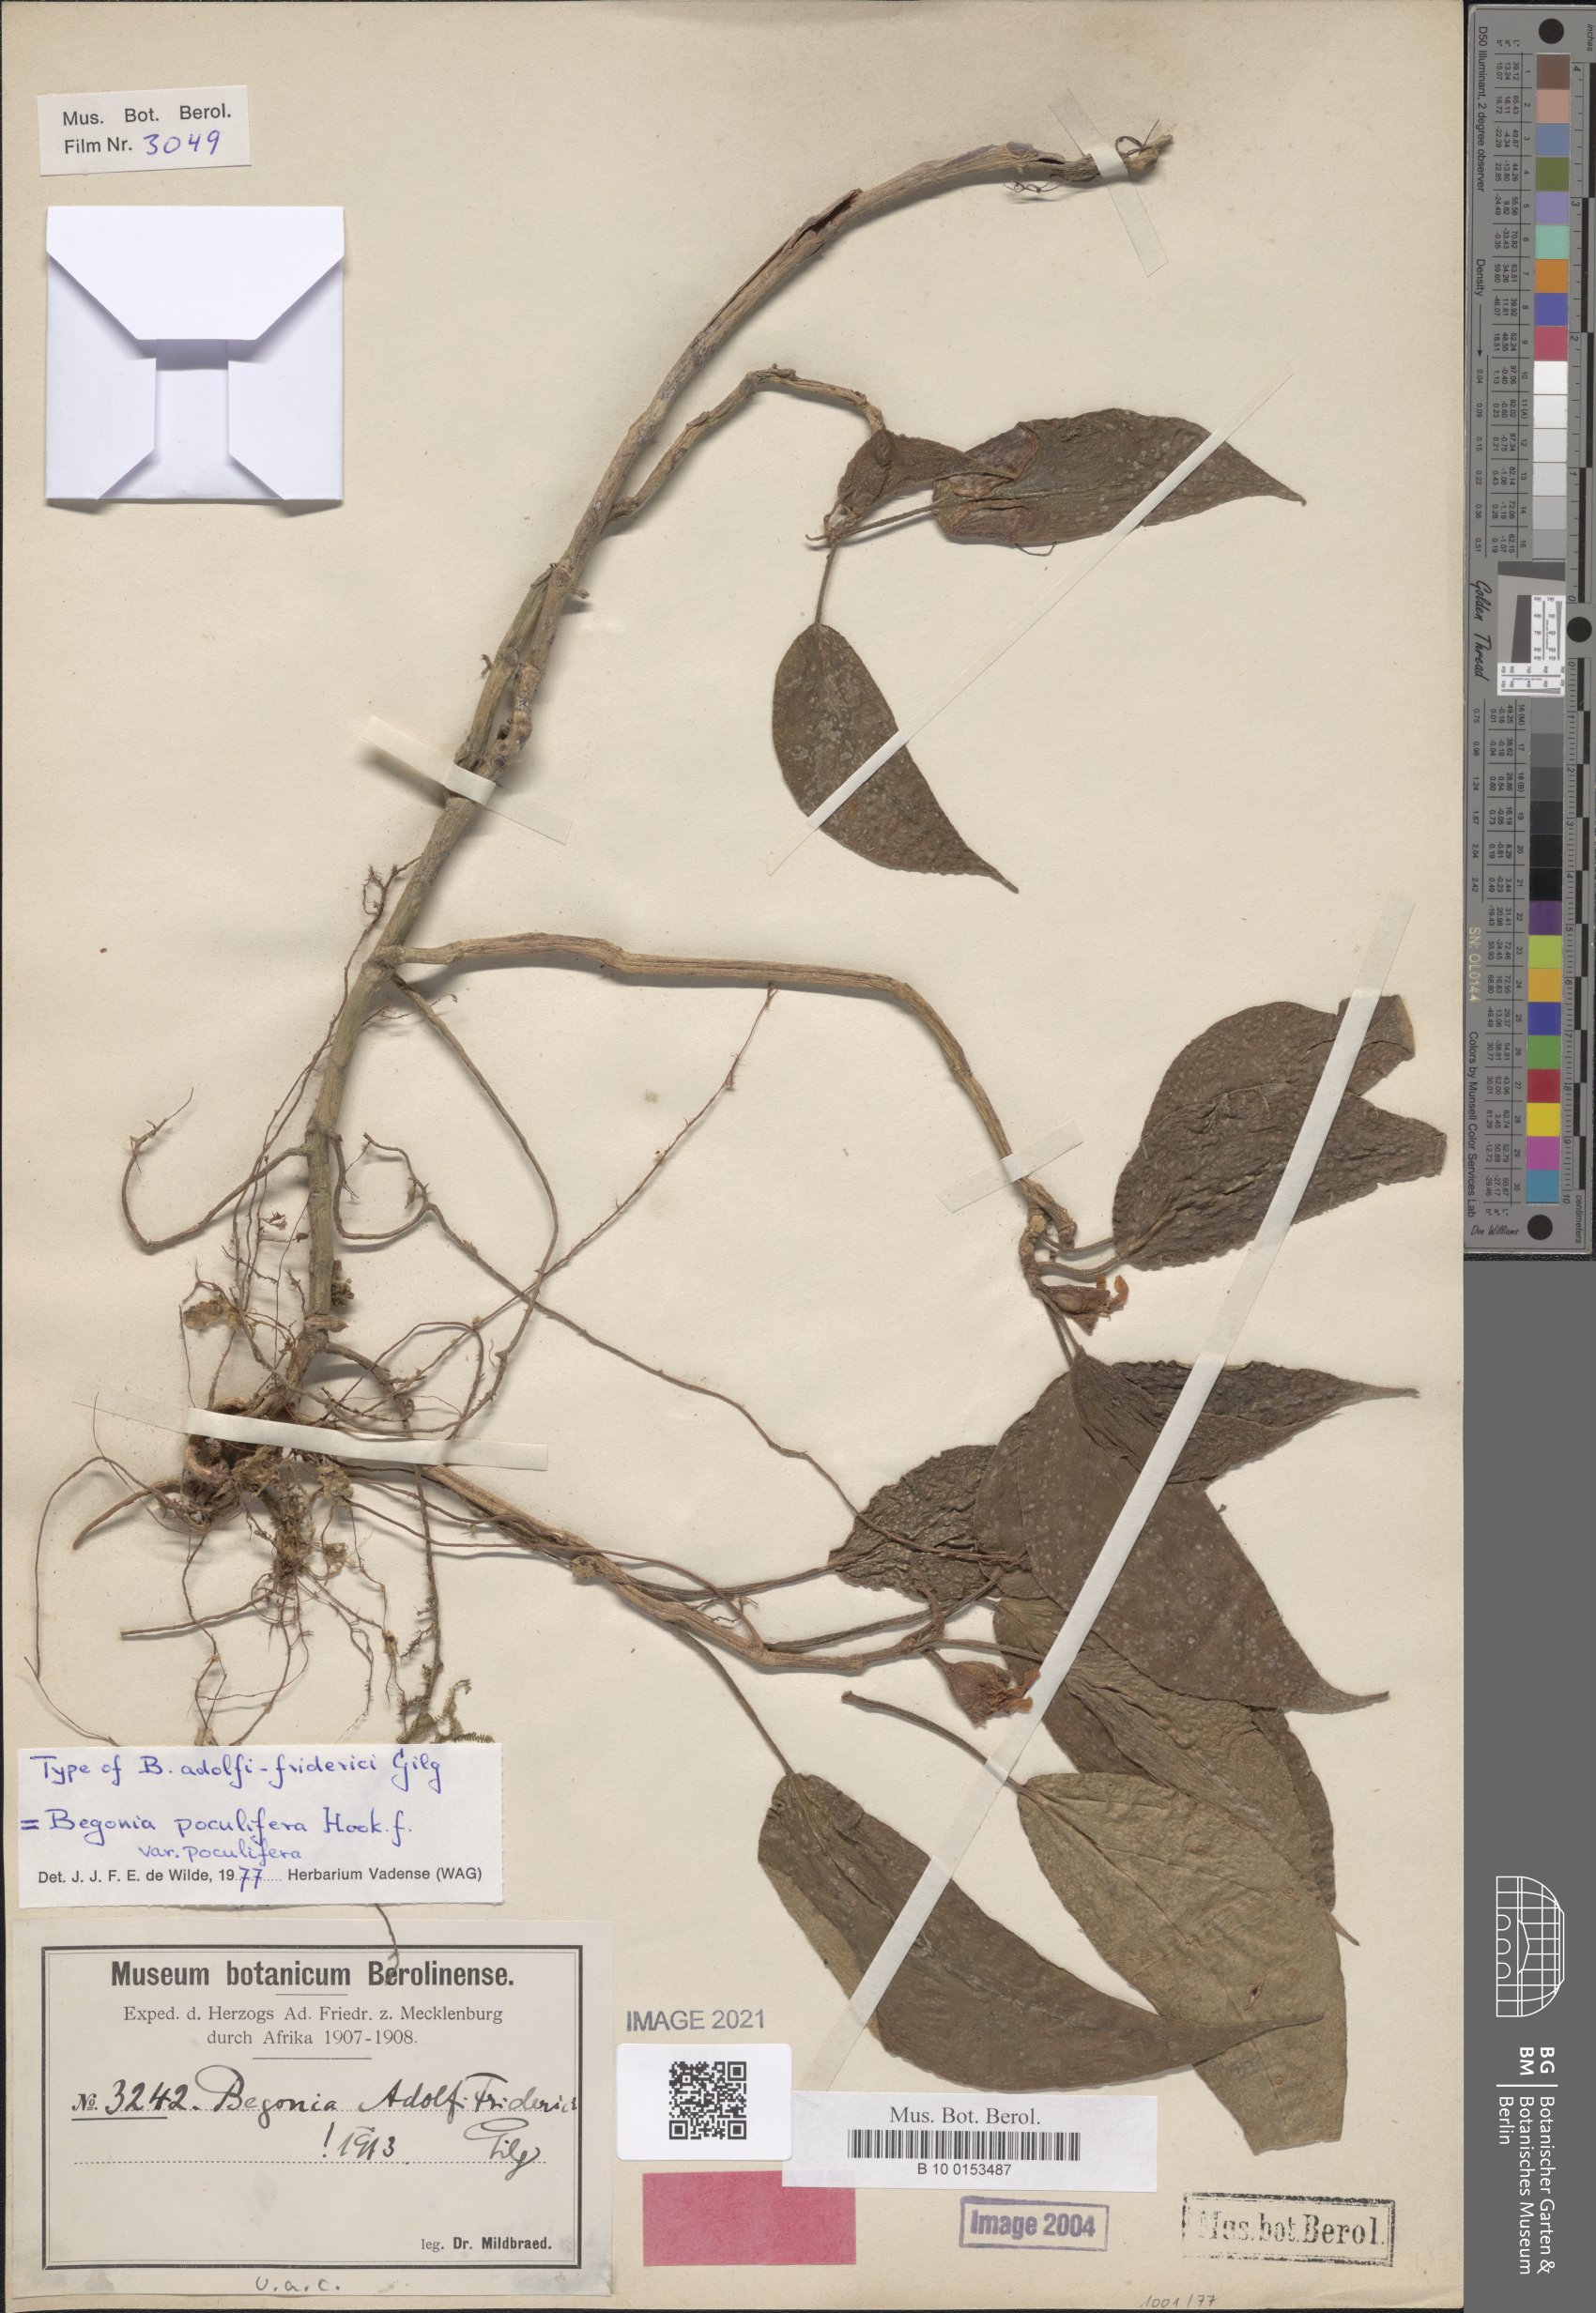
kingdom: Plantae
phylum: Tracheophyta
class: Magnoliopsida
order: Cucurbitales
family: Begoniaceae
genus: Begonia
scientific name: Begonia poculifera
